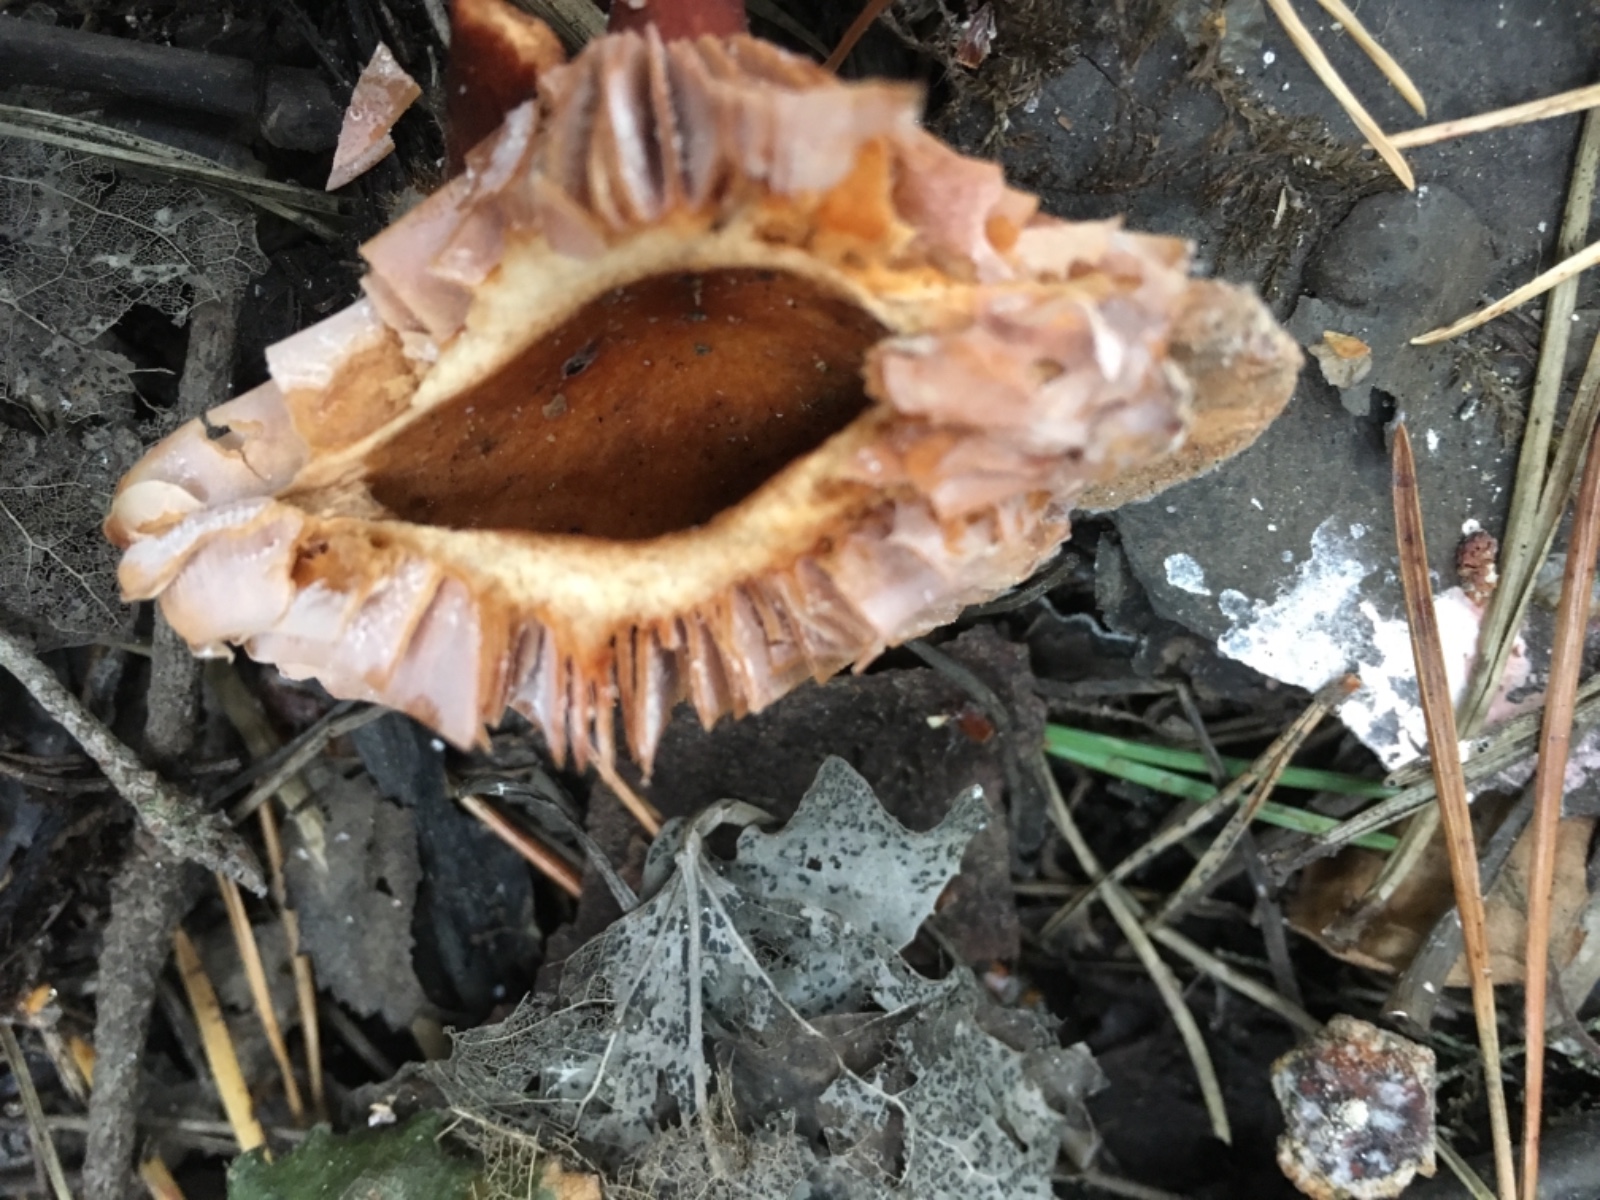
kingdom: Fungi
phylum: Basidiomycota
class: Agaricomycetes
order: Russulales
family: Russulaceae
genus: Lactarius
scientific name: Lactarius
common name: mælkehat
